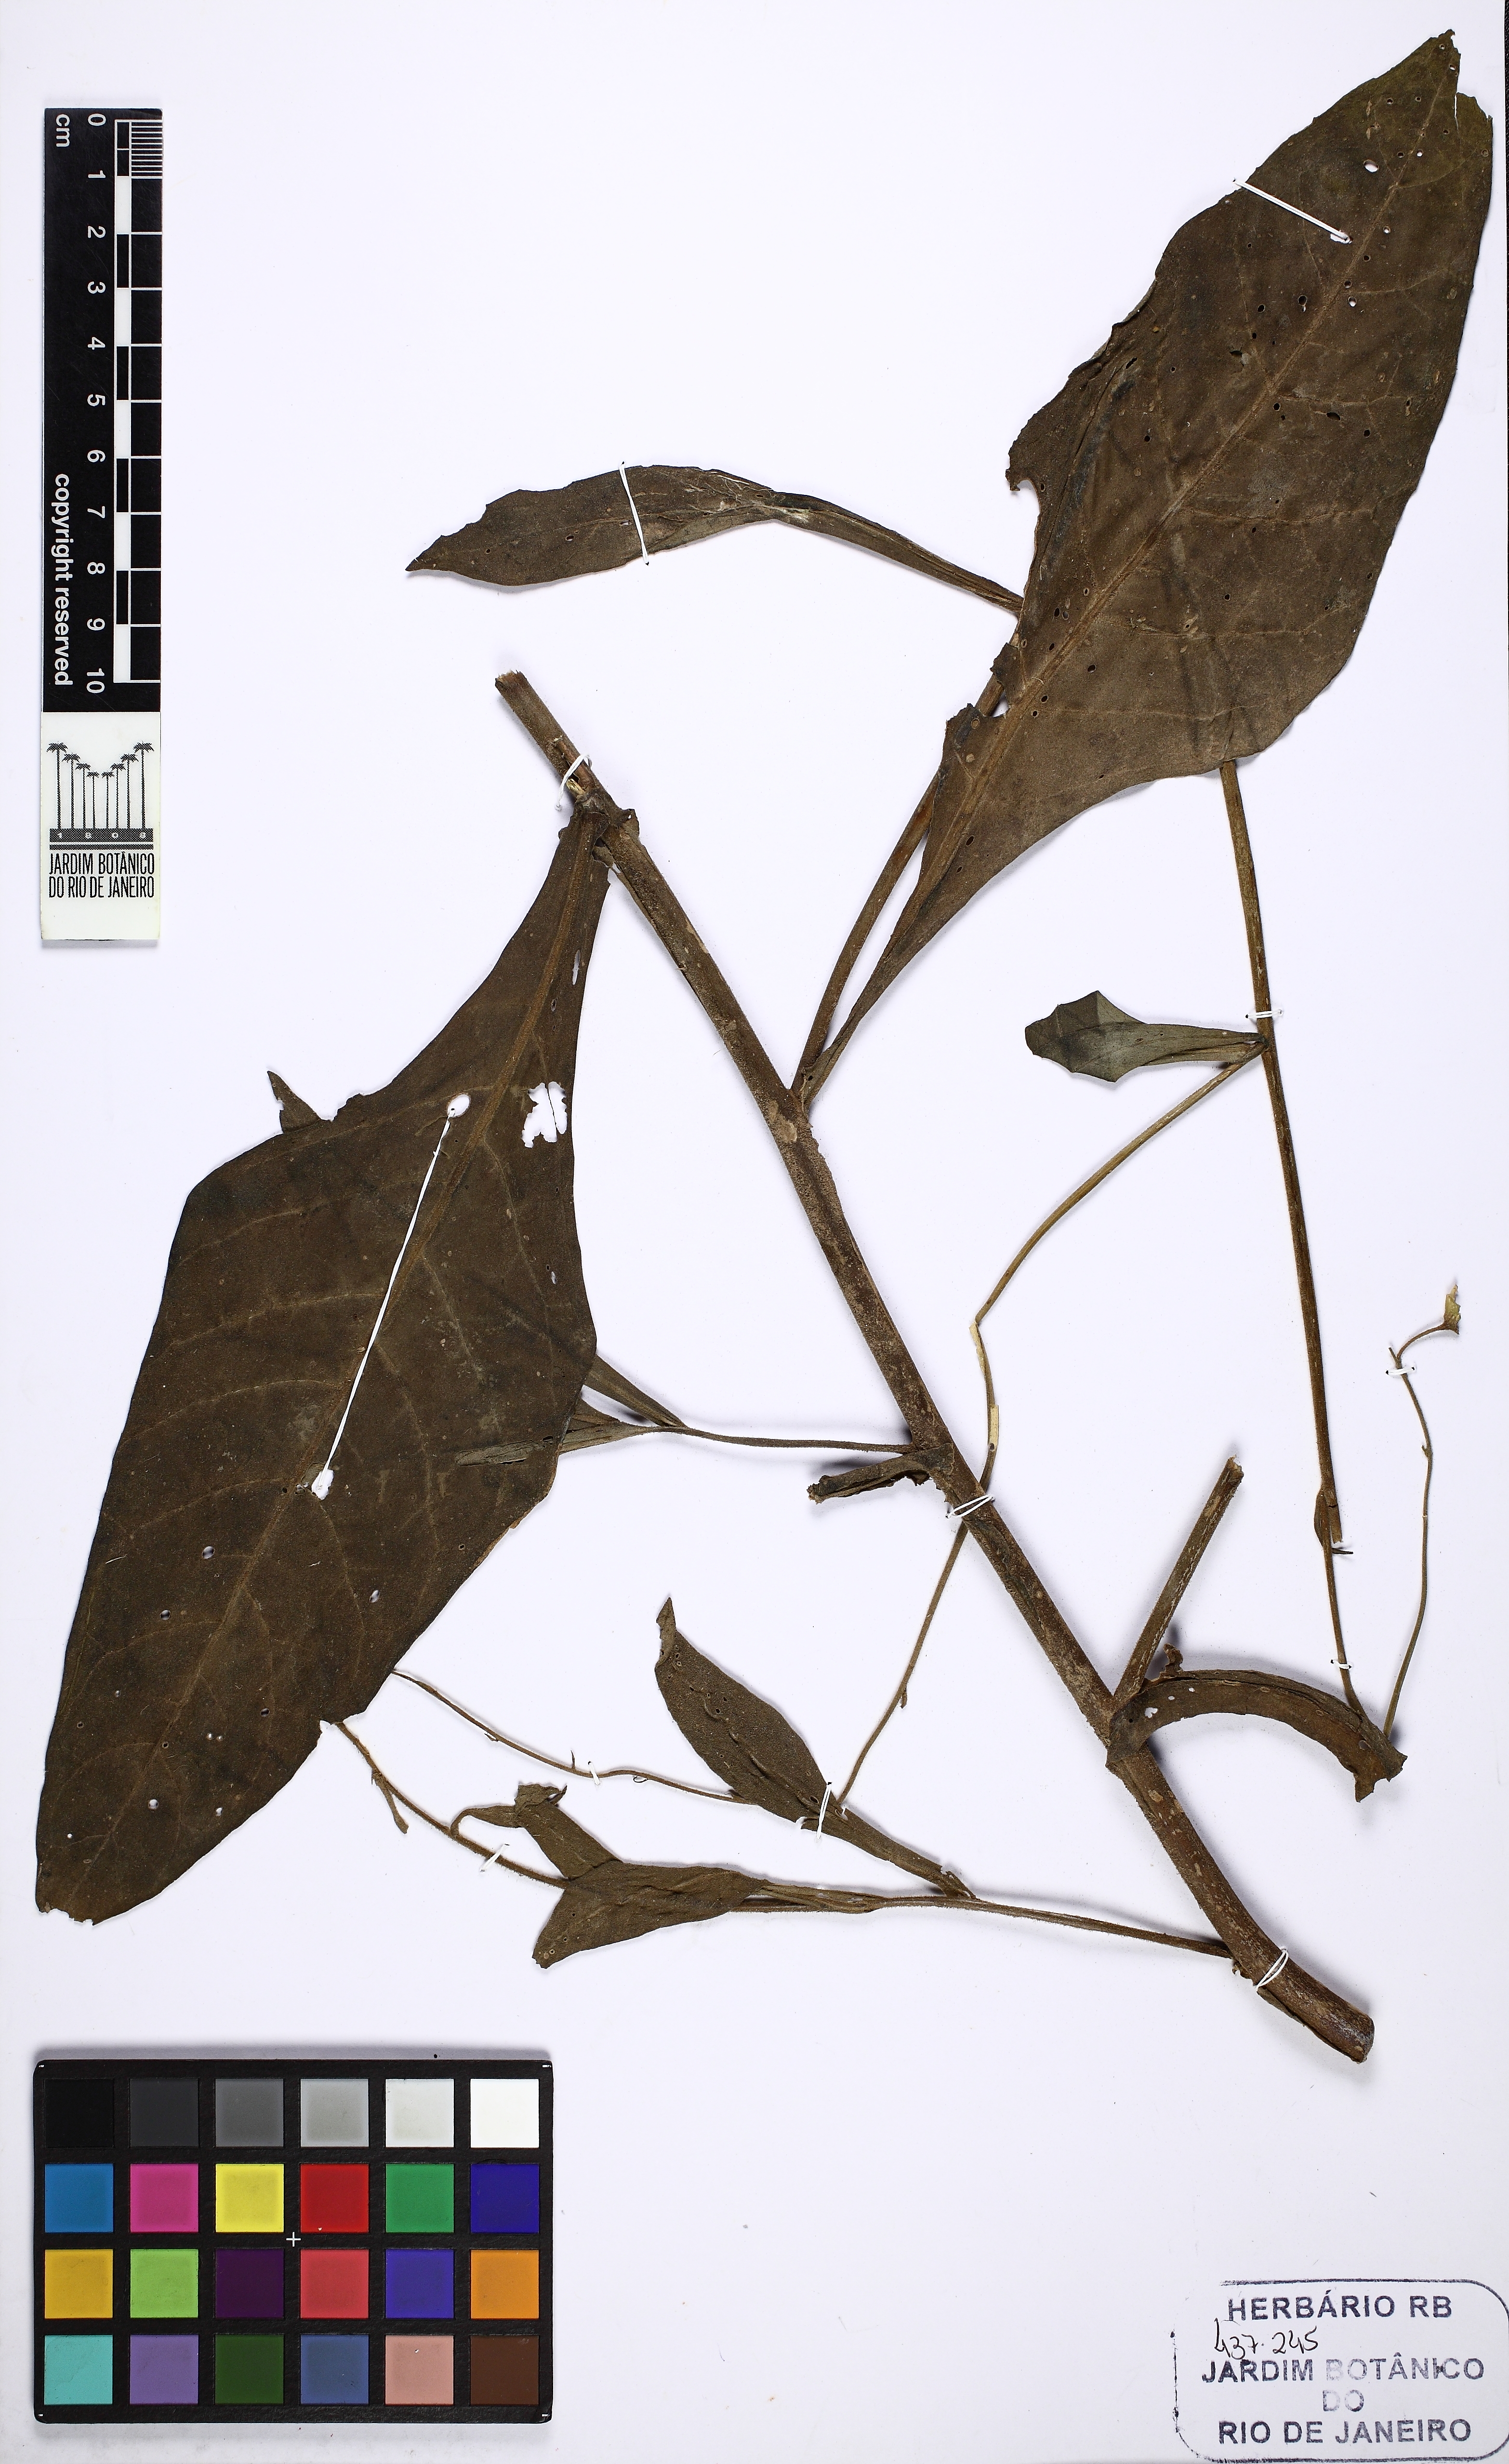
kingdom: Plantae
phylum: Tracheophyta
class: Magnoliopsida
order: Solanales
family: Solanaceae
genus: Nicotiana
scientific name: Nicotiana mutabilis
